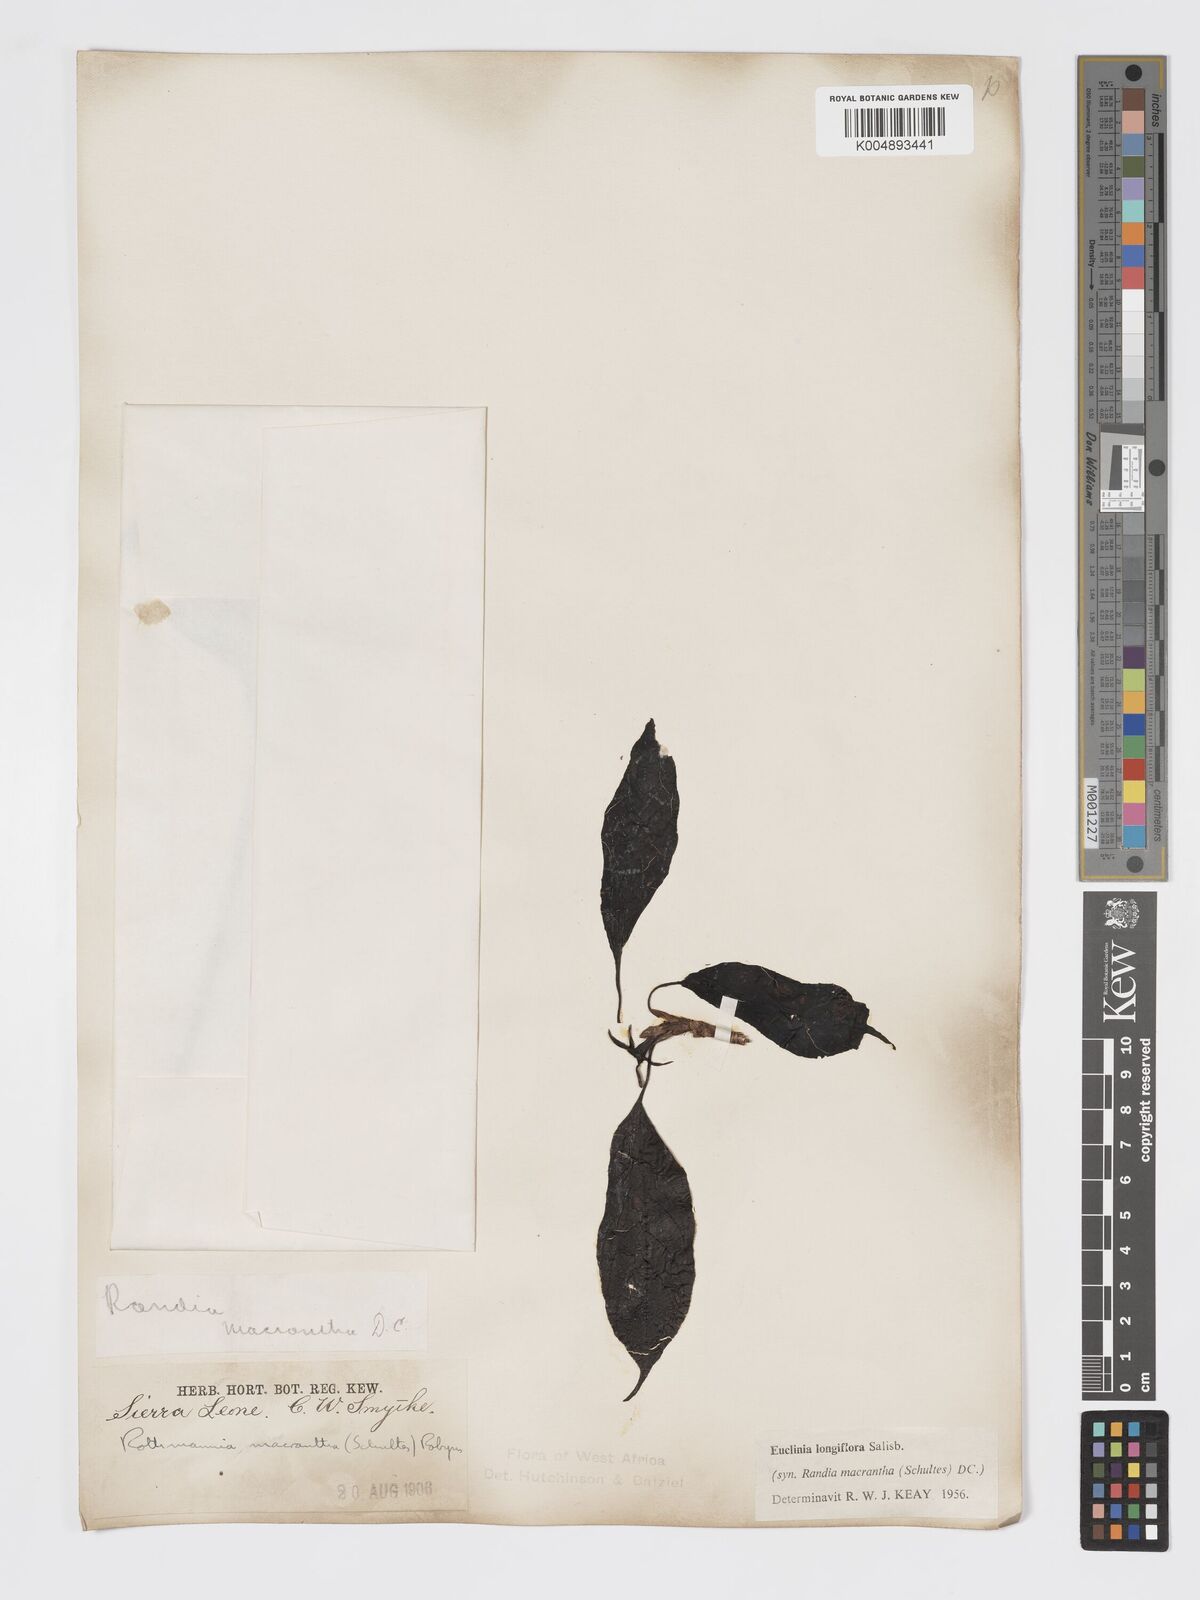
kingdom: Plantae
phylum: Tracheophyta
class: Magnoliopsida
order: Gentianales
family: Rubiaceae
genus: Euclinia
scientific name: Euclinia longiflora
